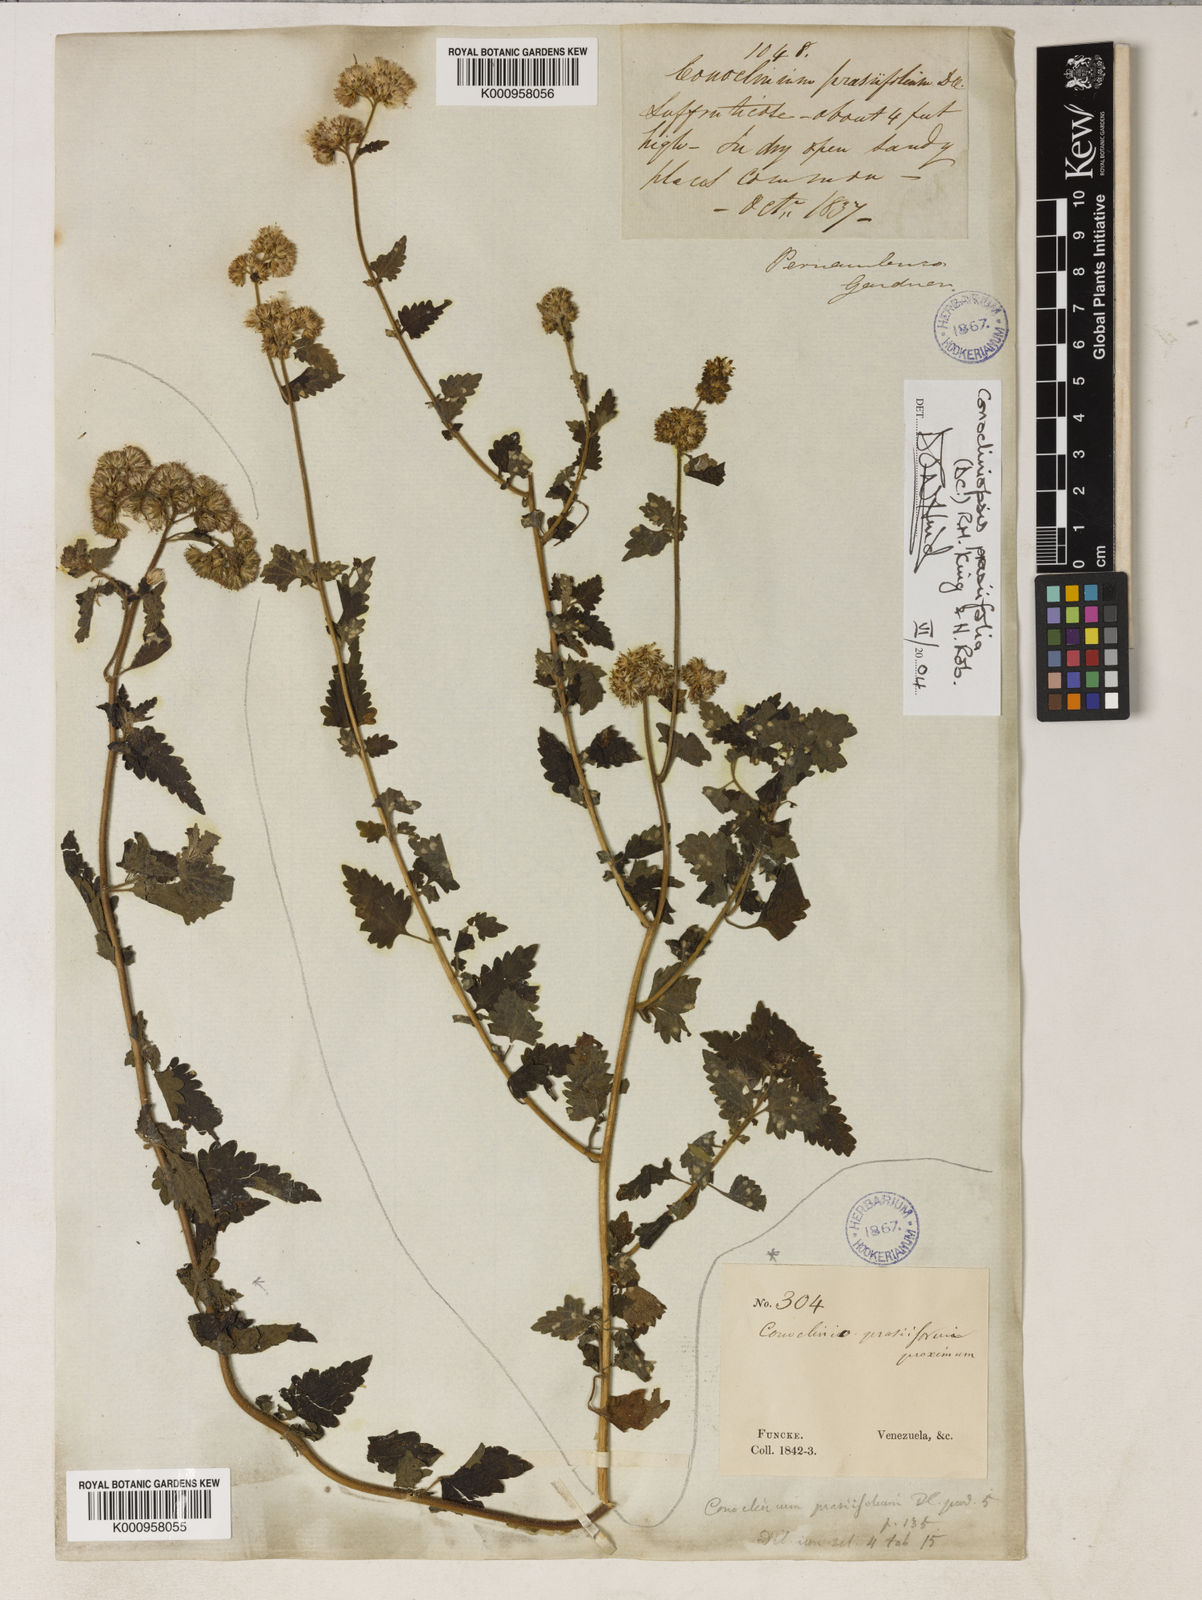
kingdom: Plantae
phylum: Tracheophyta
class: Magnoliopsida
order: Asterales
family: Asteraceae
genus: Conocliniopsis
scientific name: Conocliniopsis grossedentata
